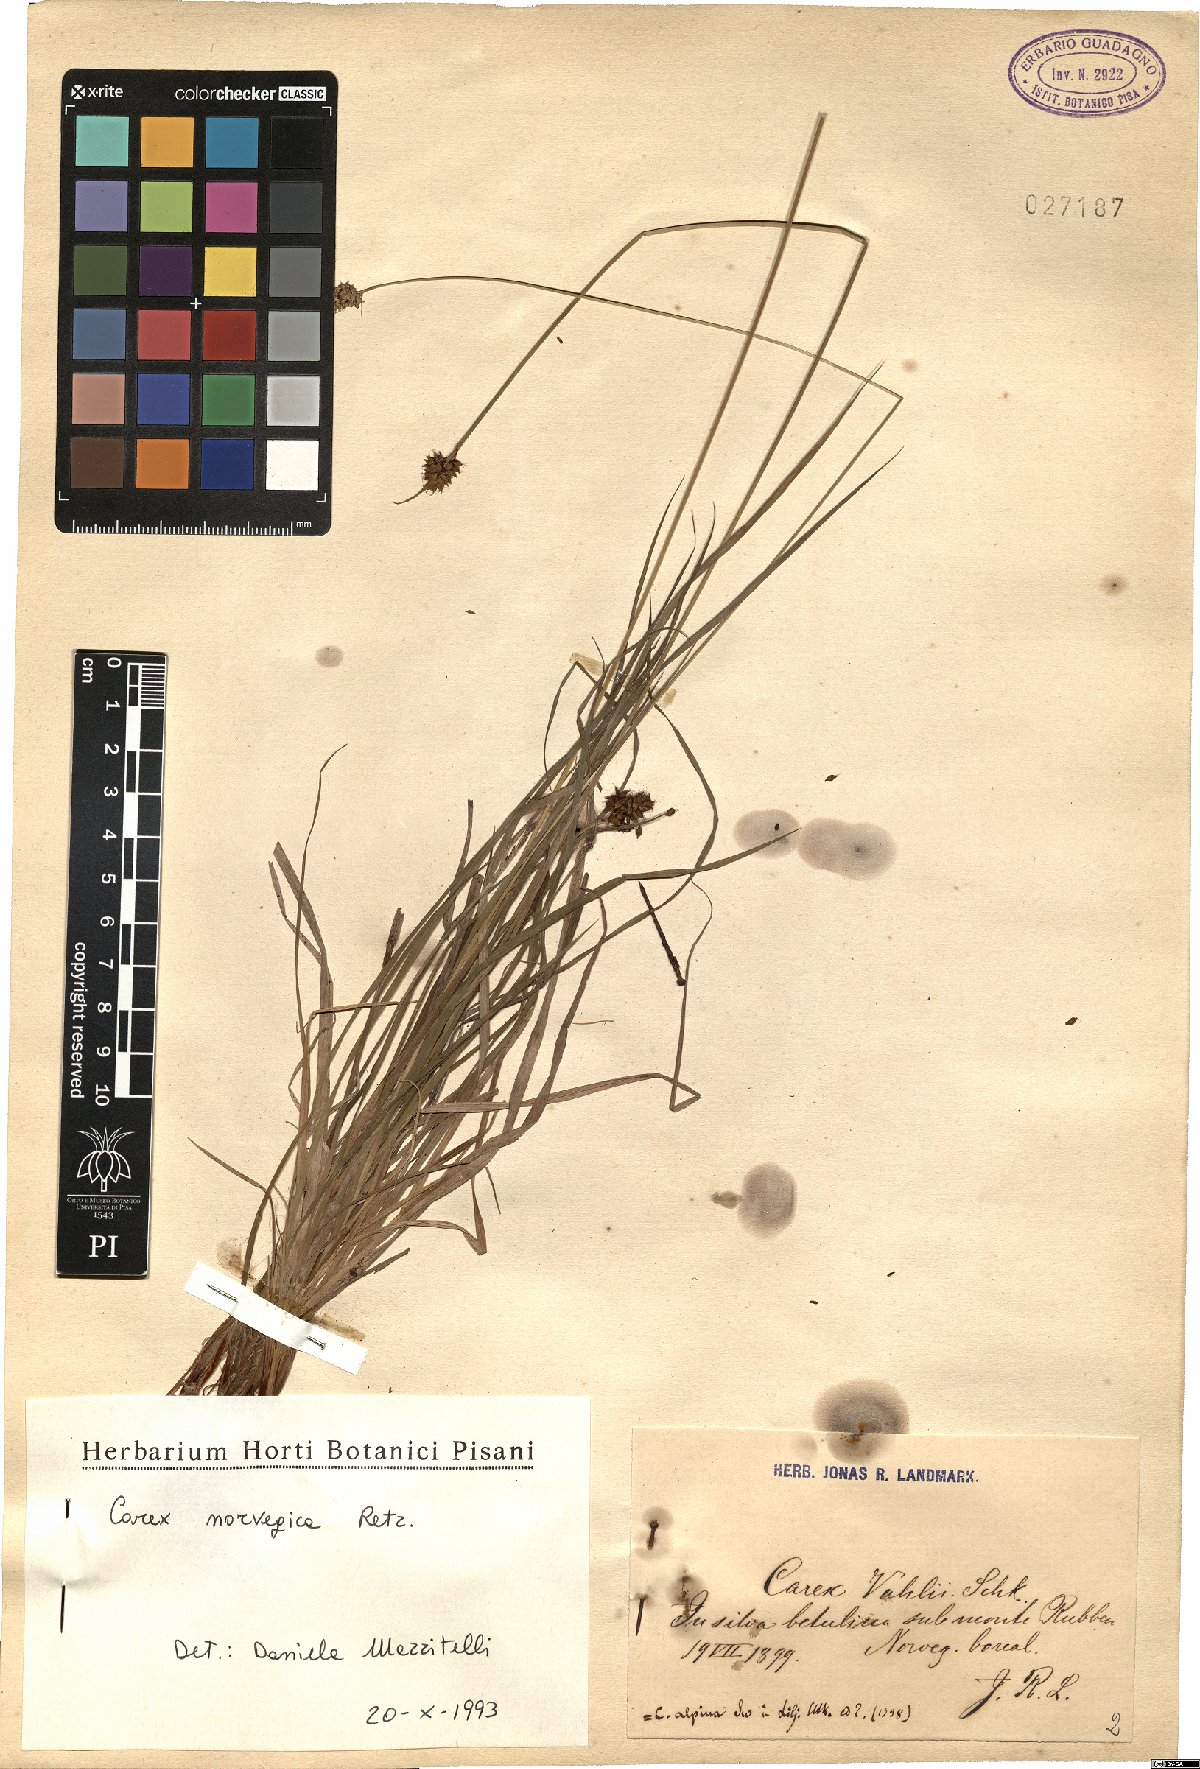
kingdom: Plantae
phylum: Tracheophyta
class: Liliopsida
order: Poales
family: Cyperaceae
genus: Carex
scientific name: Carex norvegica
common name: Close-headed alpine-sedge
